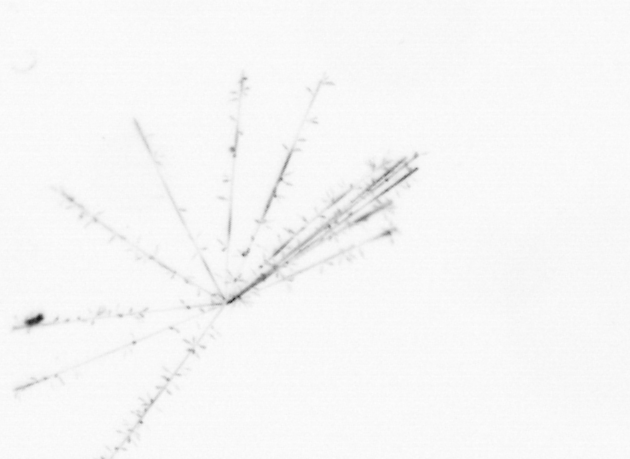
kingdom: Chromista
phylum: Ochrophyta
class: Bacillariophyceae
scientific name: Bacillariophyceae
